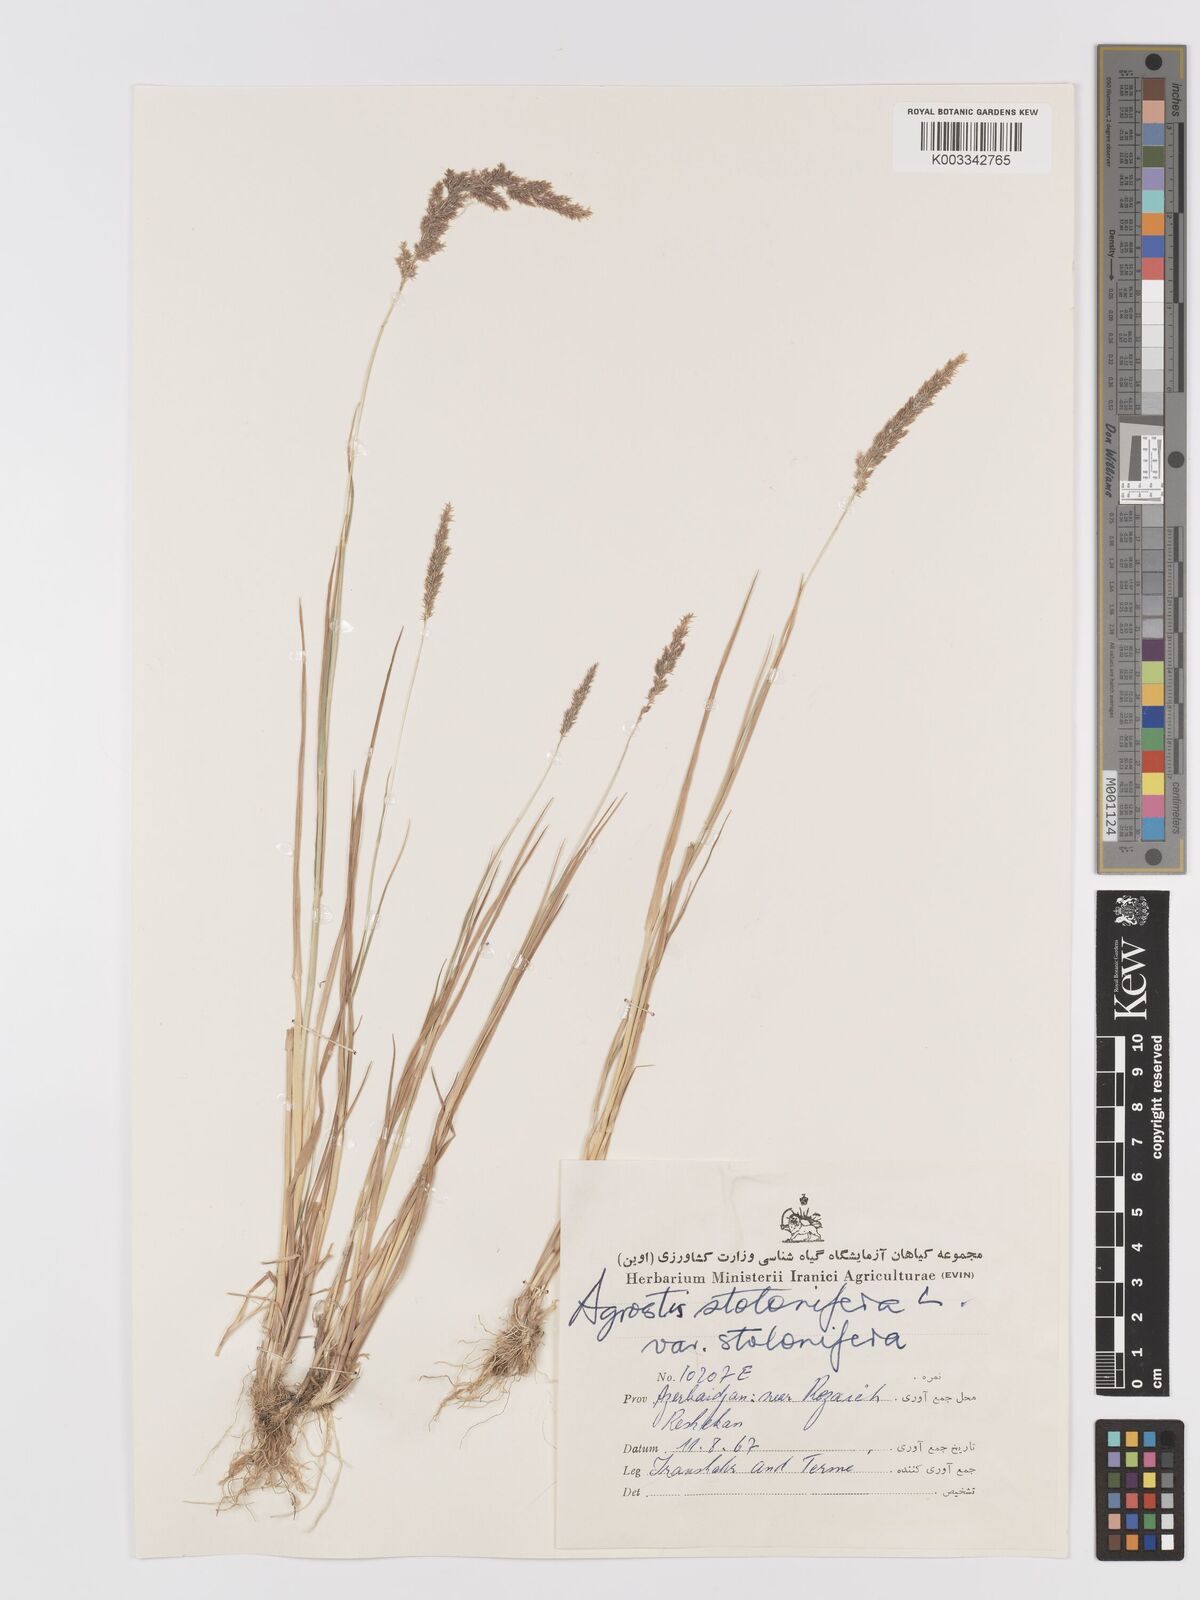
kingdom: Plantae
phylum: Tracheophyta
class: Liliopsida
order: Poales
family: Poaceae
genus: Agrostis
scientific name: Agrostis stolonifera
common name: Creeping bentgrass
